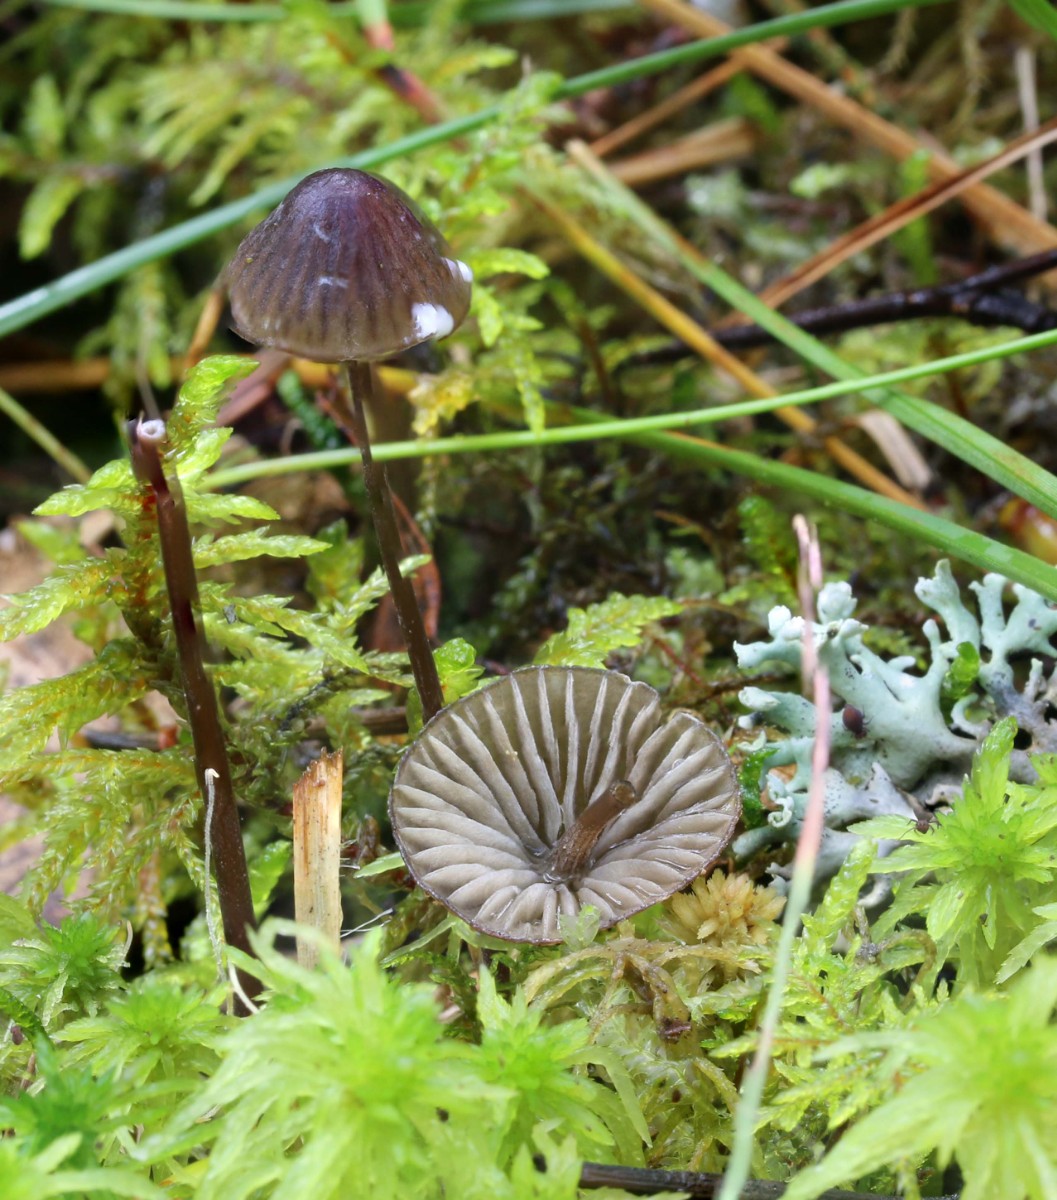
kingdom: Fungi
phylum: Basidiomycota
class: Agaricomycetes
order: Agaricales
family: Mycenaceae
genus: Mycena
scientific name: Mycena galopus
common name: hvidmælket huesvamp
